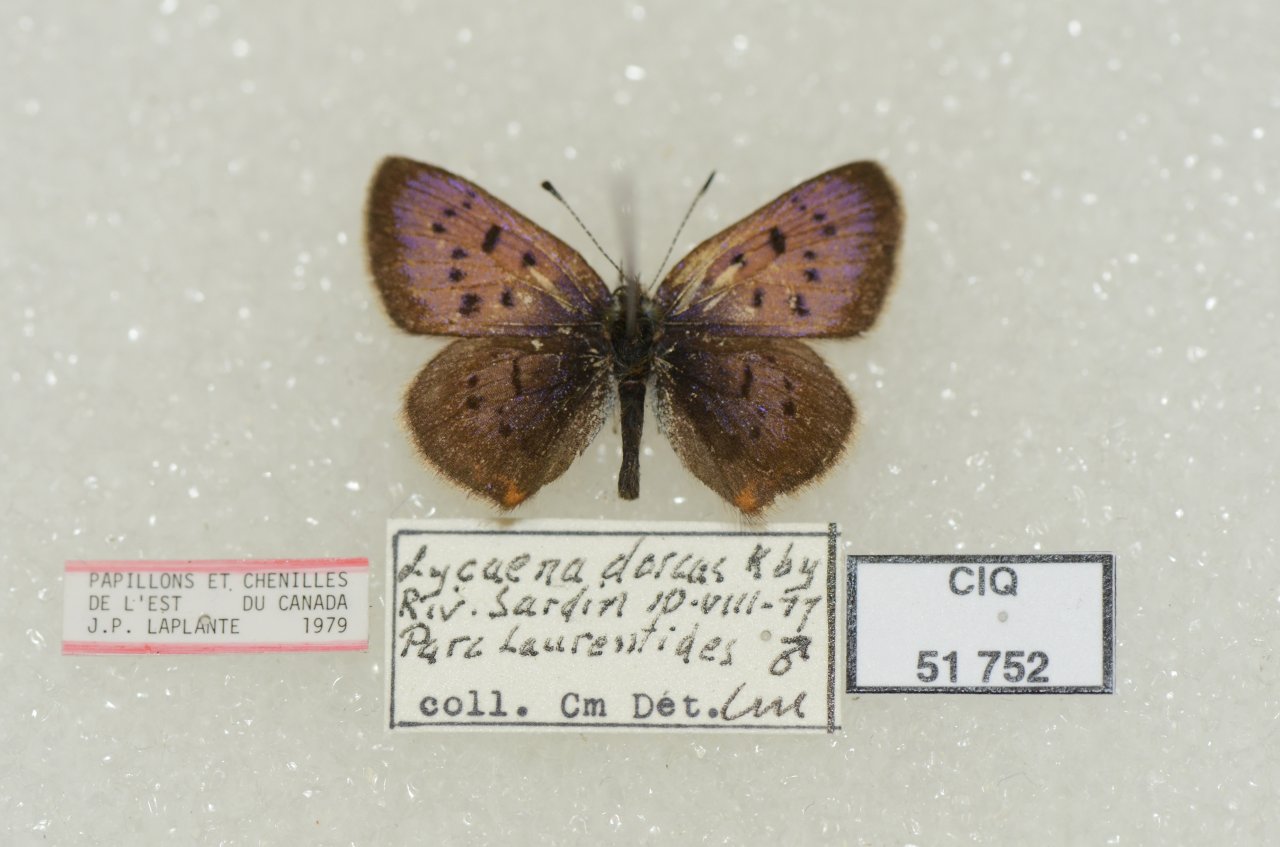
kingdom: Animalia
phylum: Arthropoda
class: Insecta
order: Lepidoptera
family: Lycaenidae
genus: Epidemia
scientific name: Epidemia dorcas
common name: Dorcas Copper
